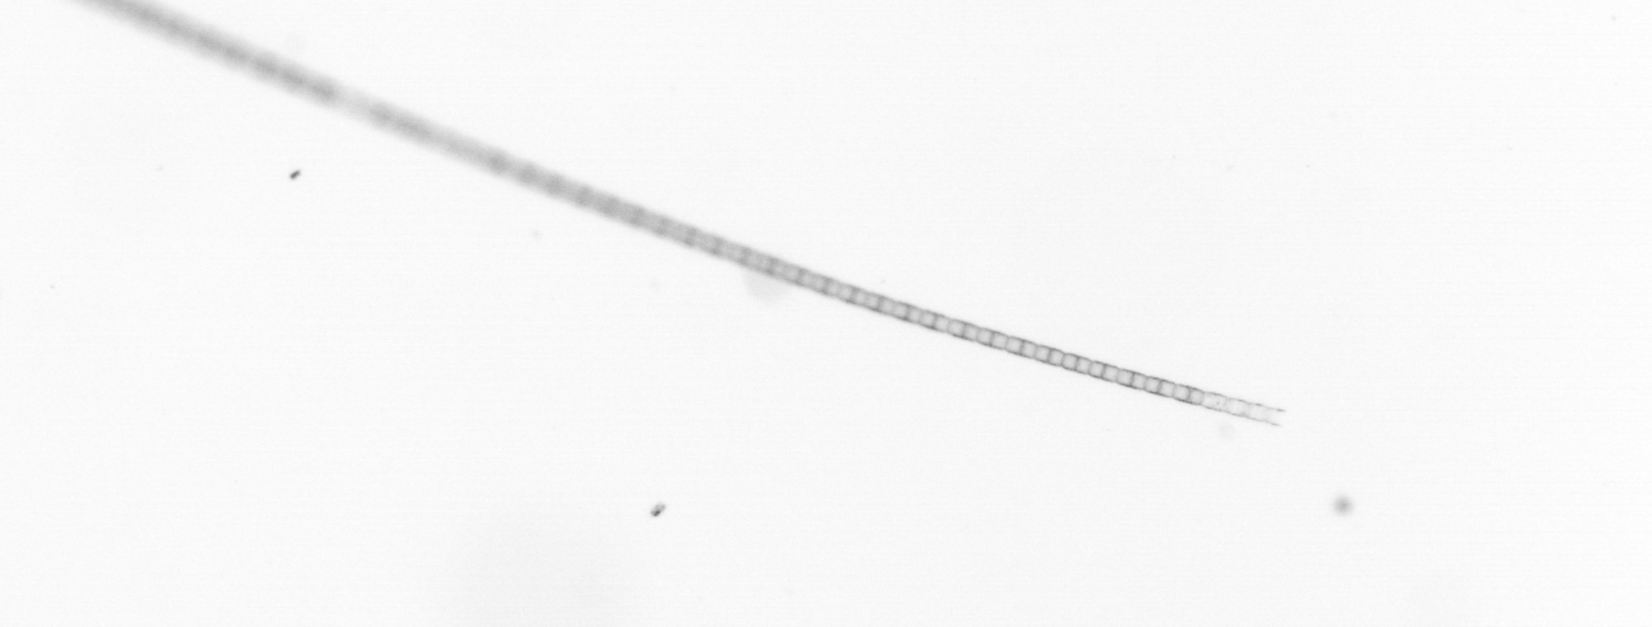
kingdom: Chromista
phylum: Ochrophyta
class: Bacillariophyceae
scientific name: Bacillariophyceae
